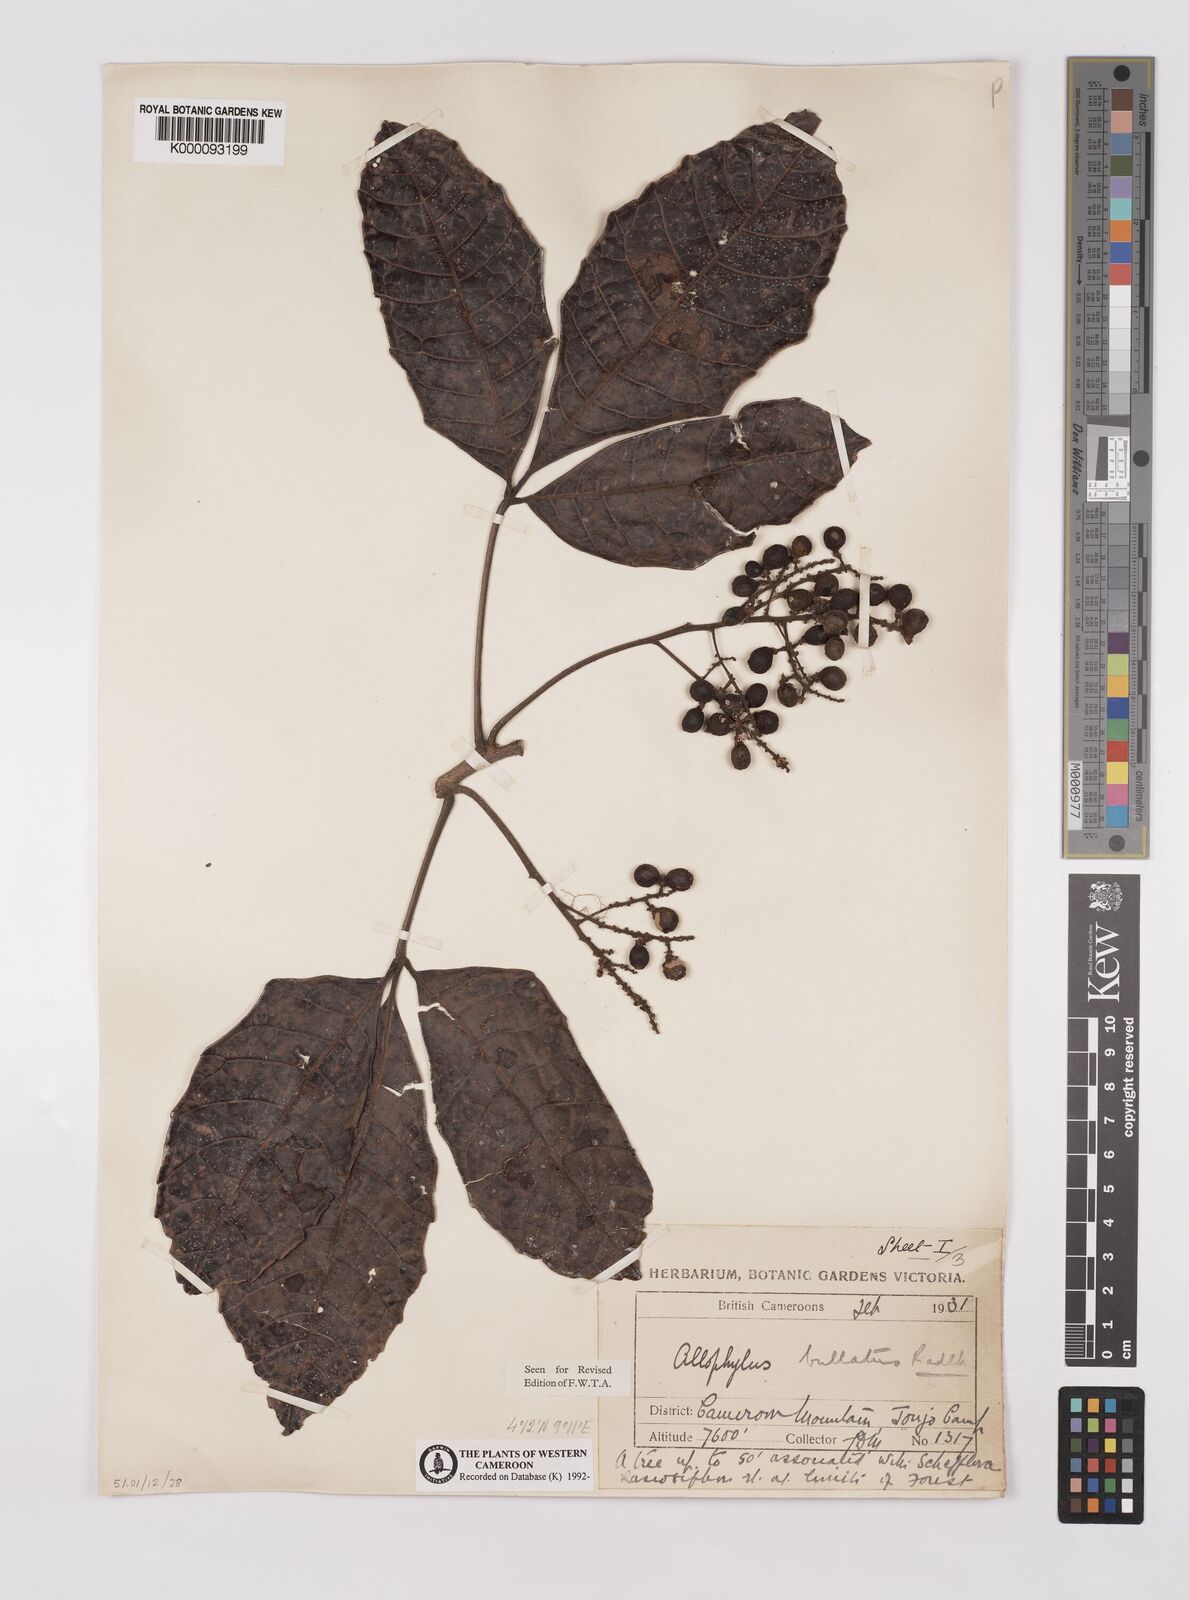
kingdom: Plantae
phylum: Tracheophyta
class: Magnoliopsida
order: Sapindales
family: Sapindaceae
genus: Allophylus
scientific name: Allophylus bullatus
